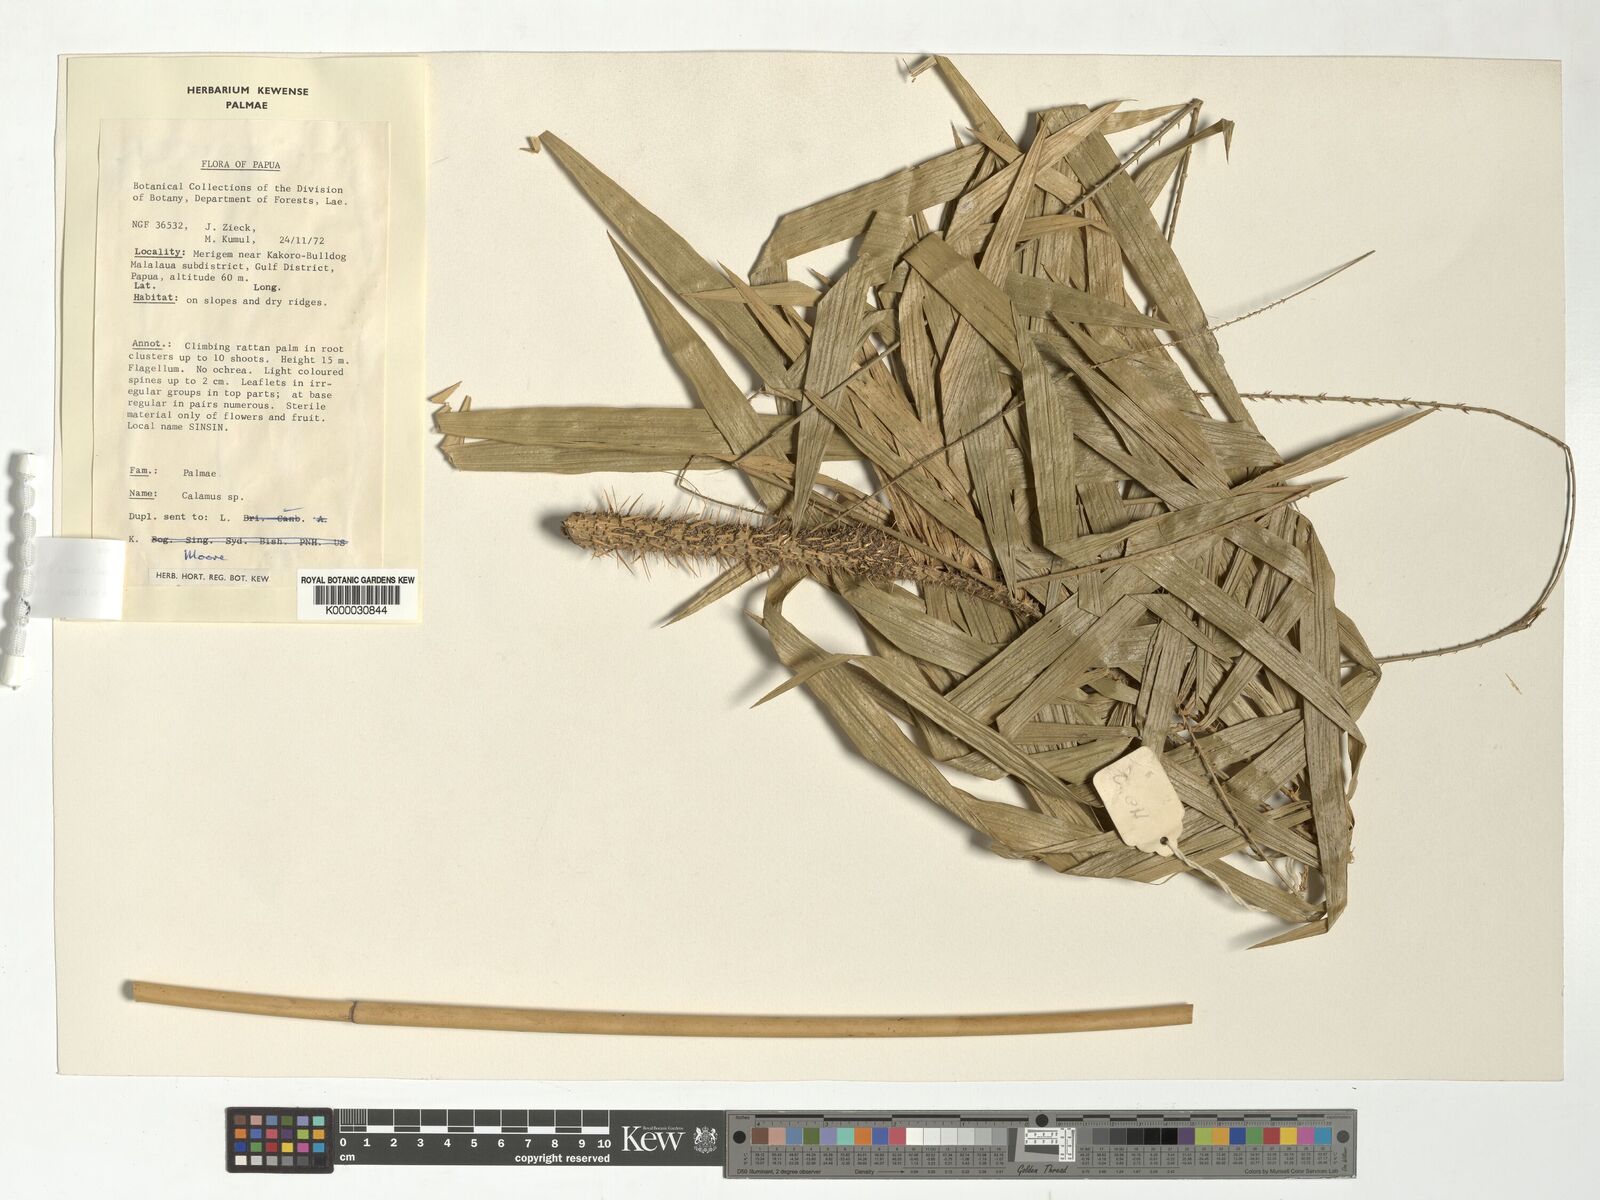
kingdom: Plantae
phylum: Tracheophyta
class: Liliopsida
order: Arecales
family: Arecaceae
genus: Calamus
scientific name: Calamus retroflexus
